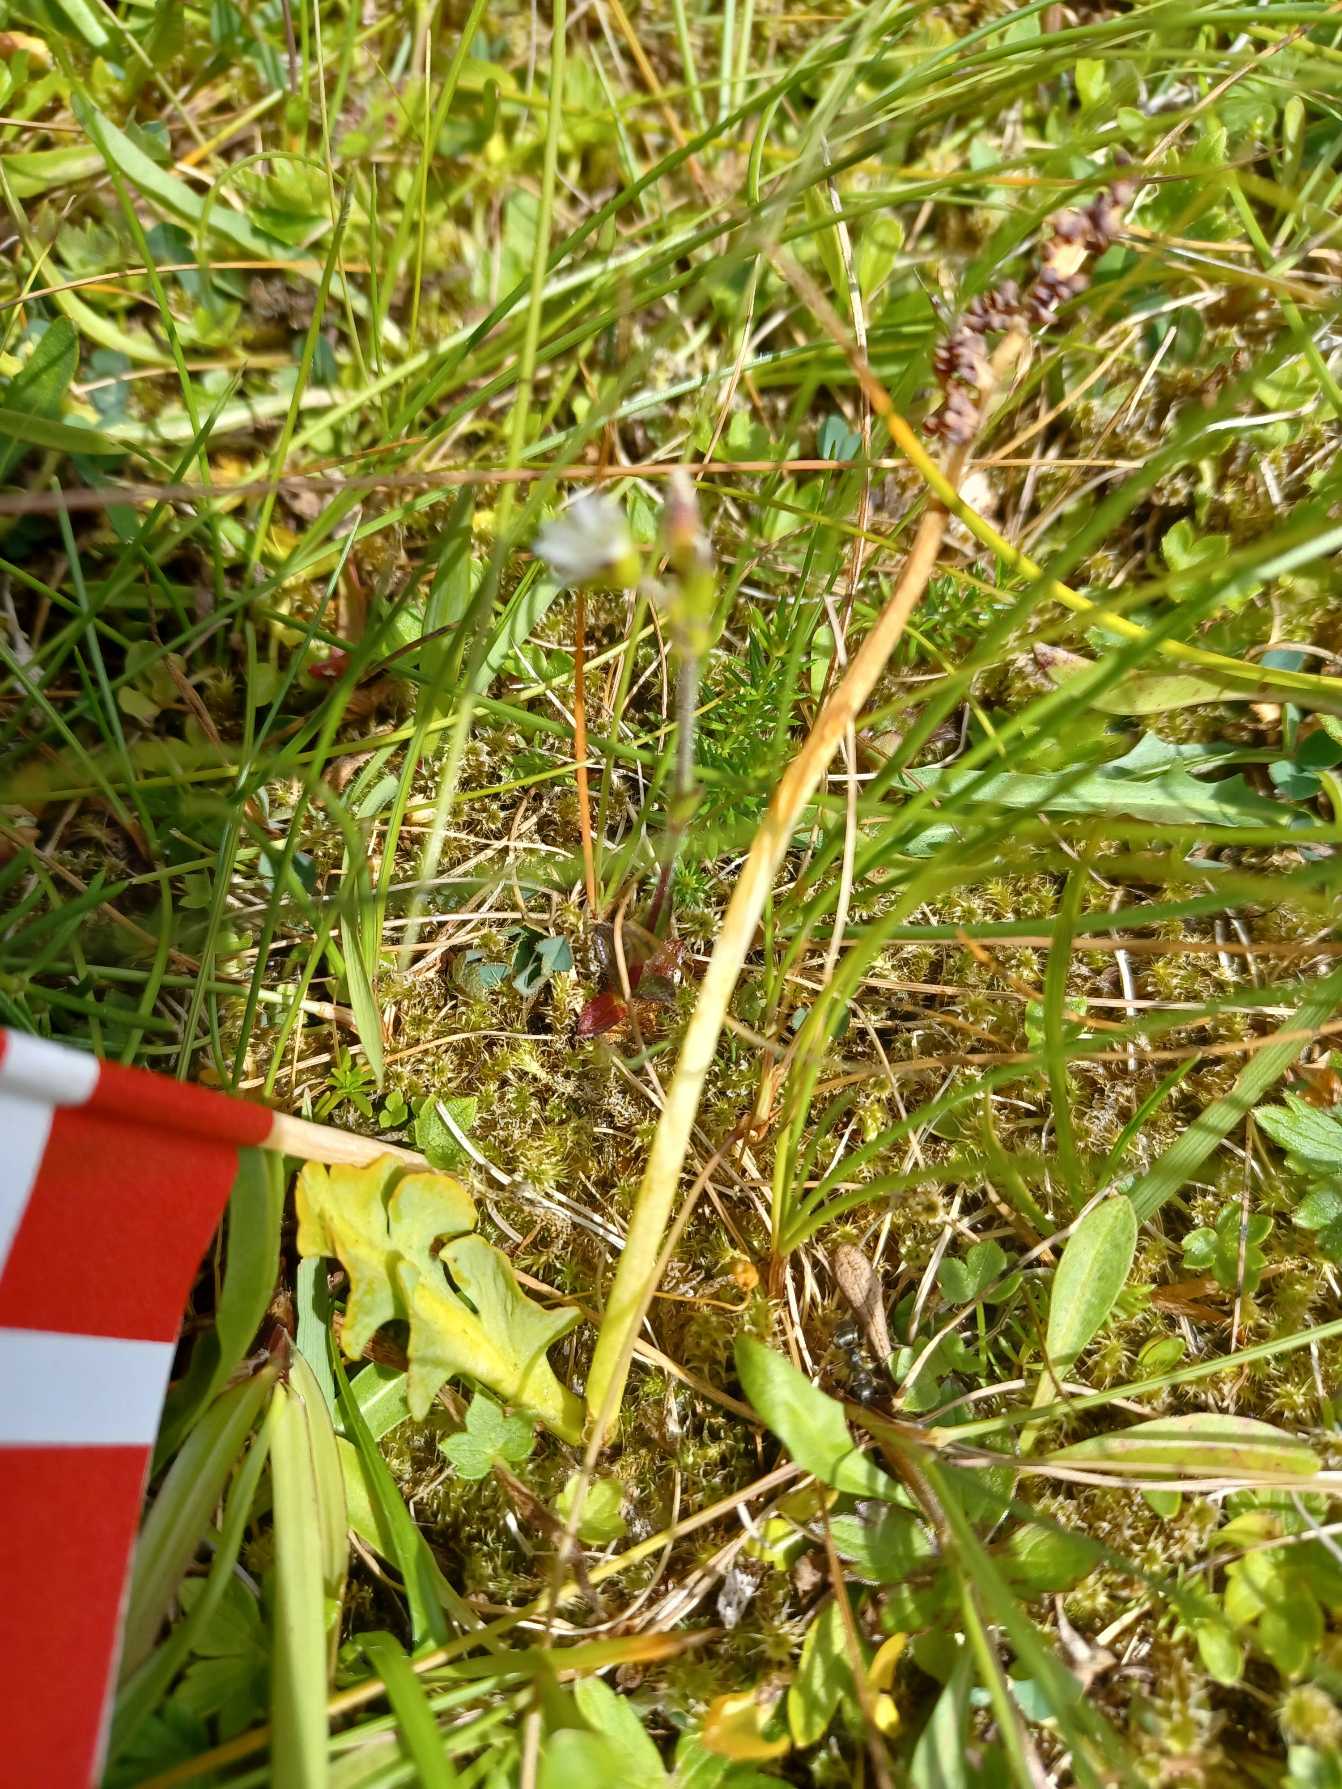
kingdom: Plantae
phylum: Tracheophyta
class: Polypodiopsida
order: Ophioglossales
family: Ophioglossaceae
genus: Botrychium
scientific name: Botrychium simplex
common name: Enkelt månerude
